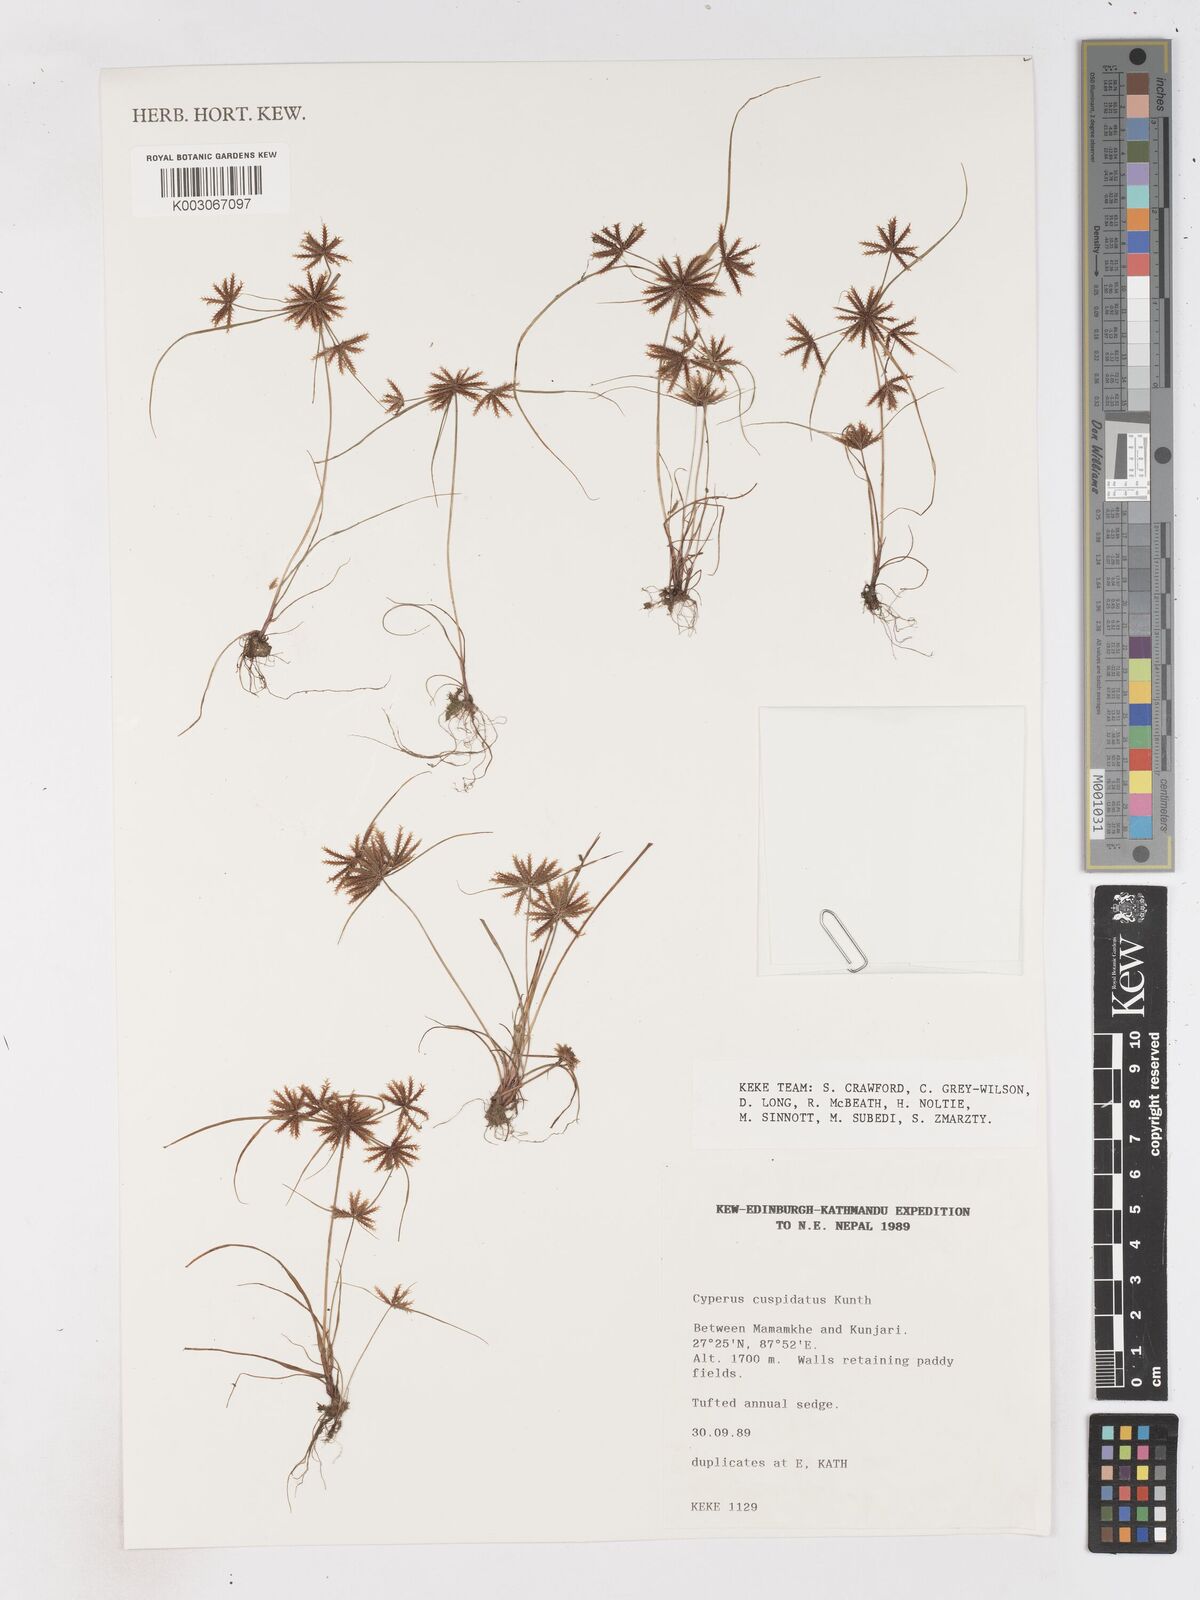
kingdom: Plantae
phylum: Tracheophyta
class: Liliopsida
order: Poales
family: Cyperaceae
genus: Cyperus
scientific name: Cyperus cuspidatus
